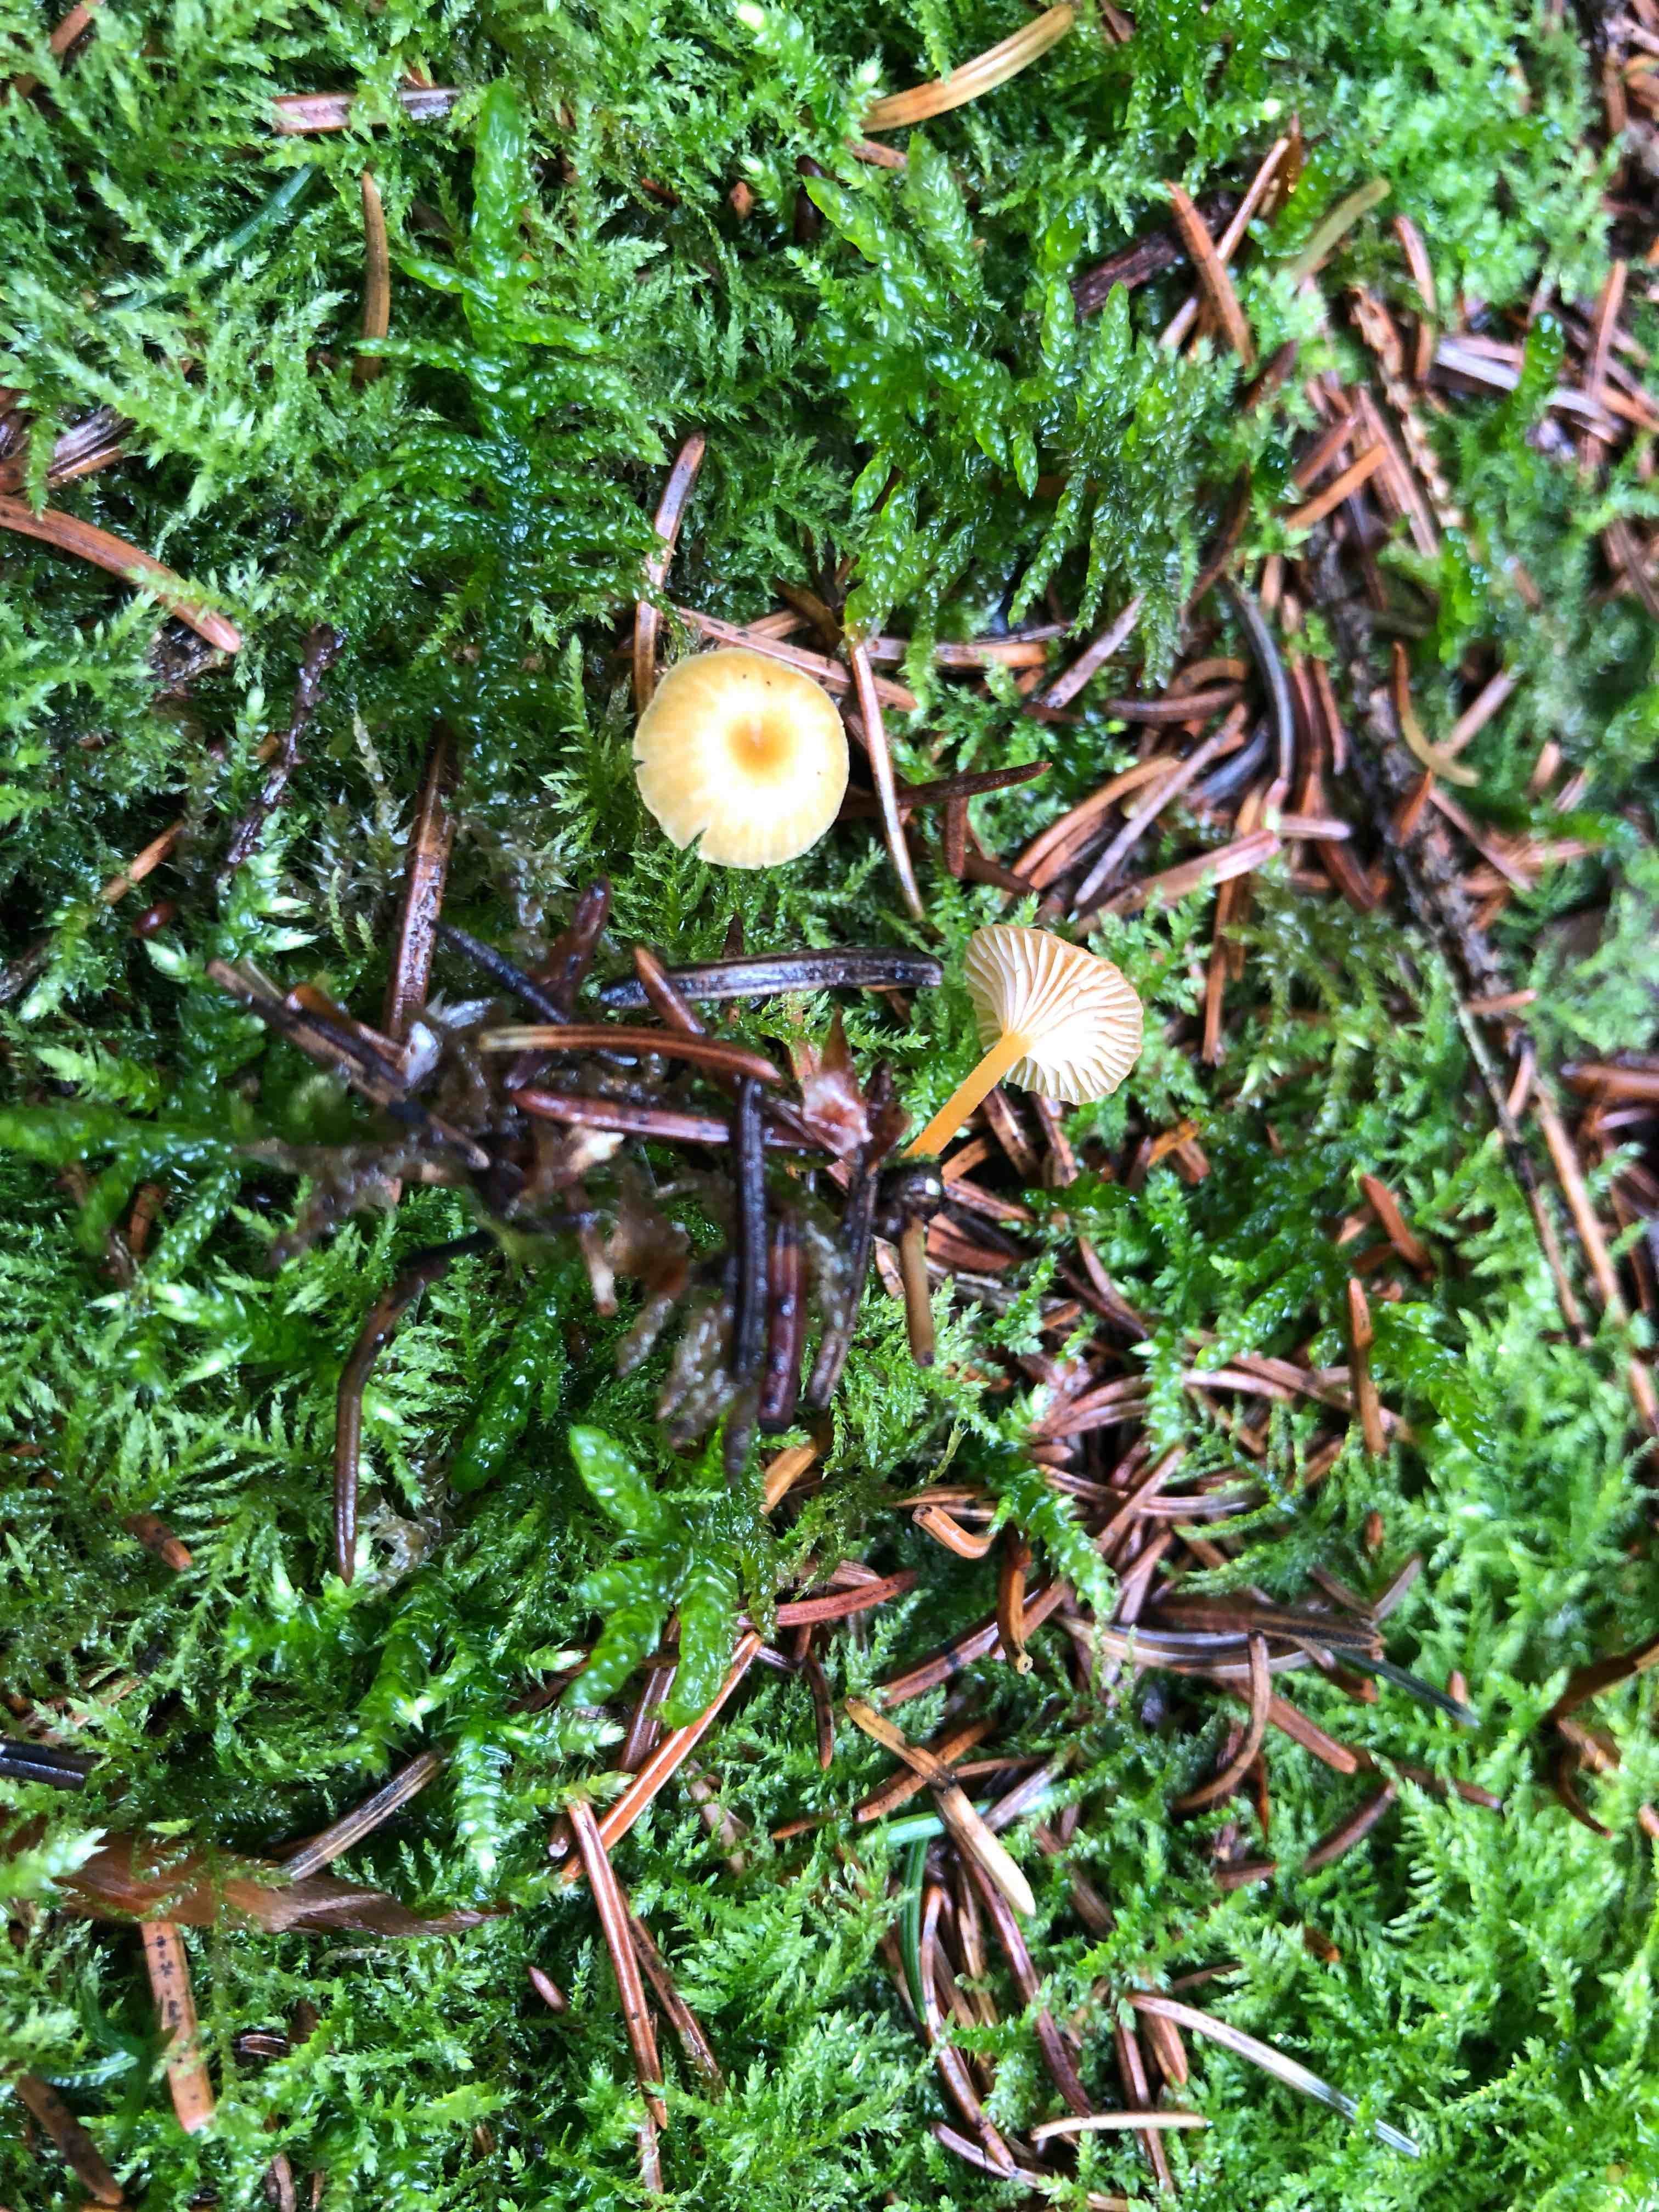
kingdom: Fungi
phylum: Basidiomycota
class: Agaricomycetes
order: Hymenochaetales
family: Rickenellaceae
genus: Rickenella
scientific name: Rickenella fibula
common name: orange mosnavlehat
